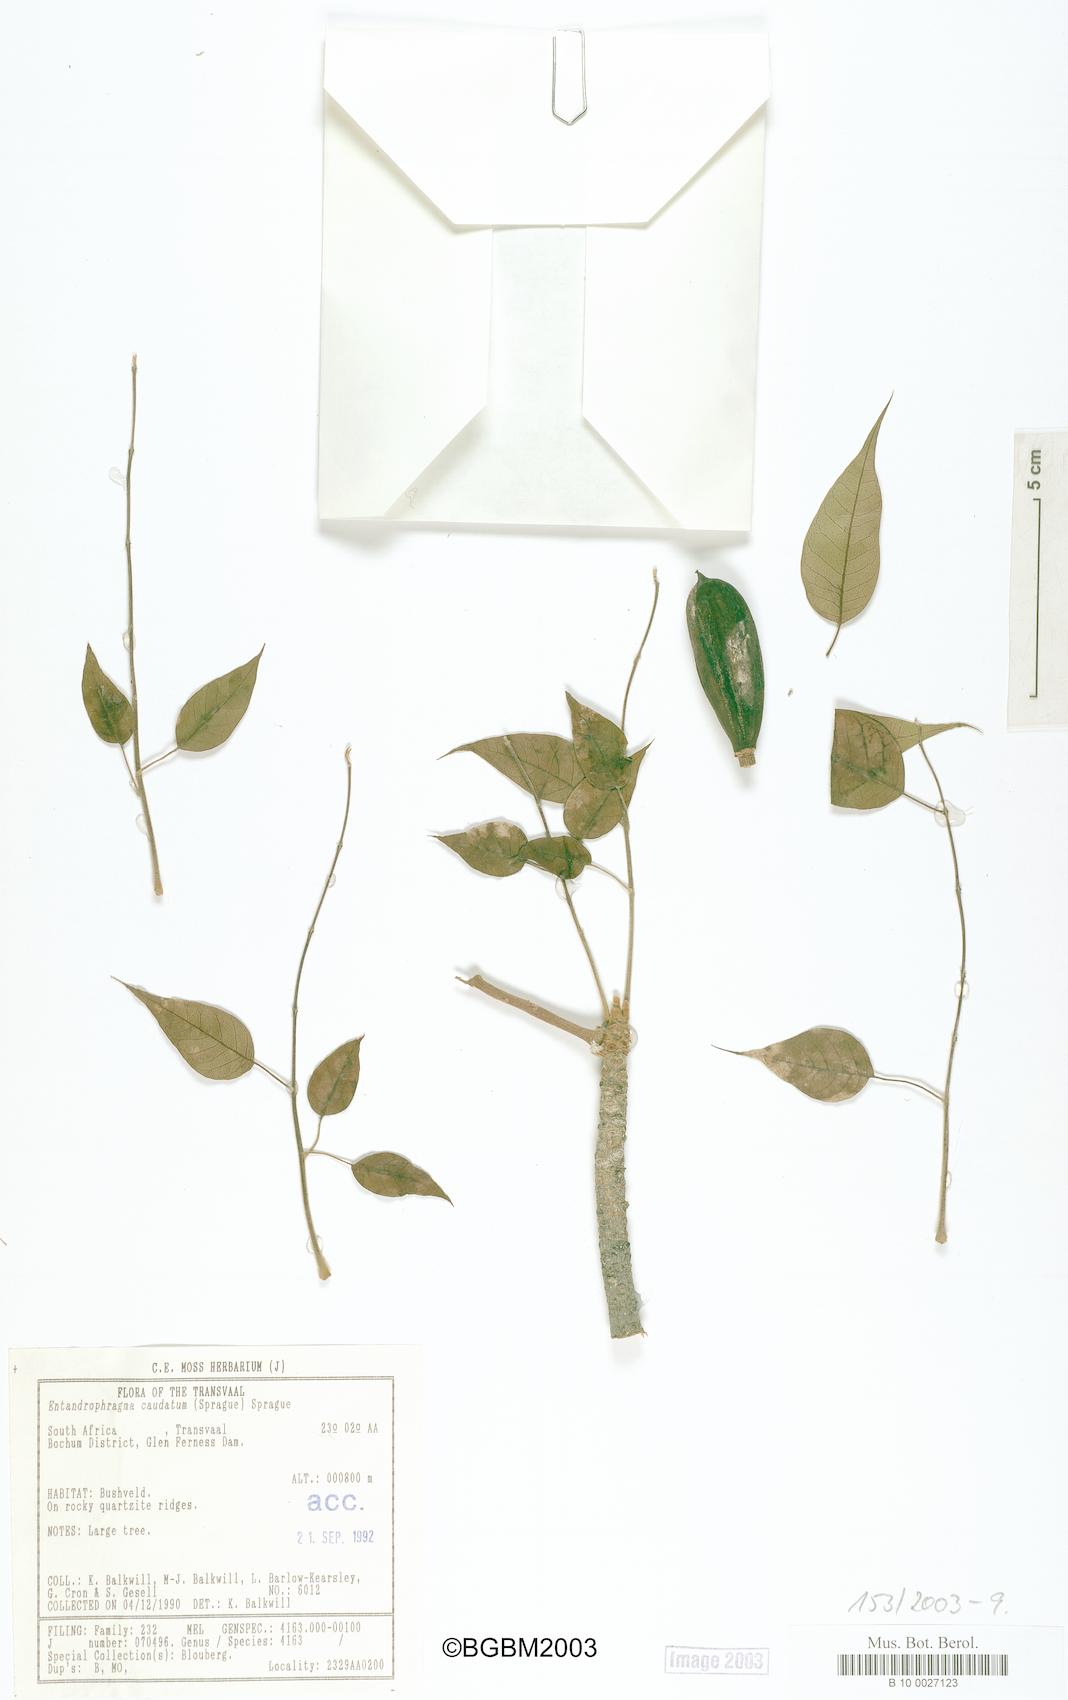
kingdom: Plantae
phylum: Tracheophyta
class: Magnoliopsida
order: Sapindales
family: Meliaceae
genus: Entandrophragma
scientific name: Entandrophragma caudatum
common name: Mountain-mahogany
